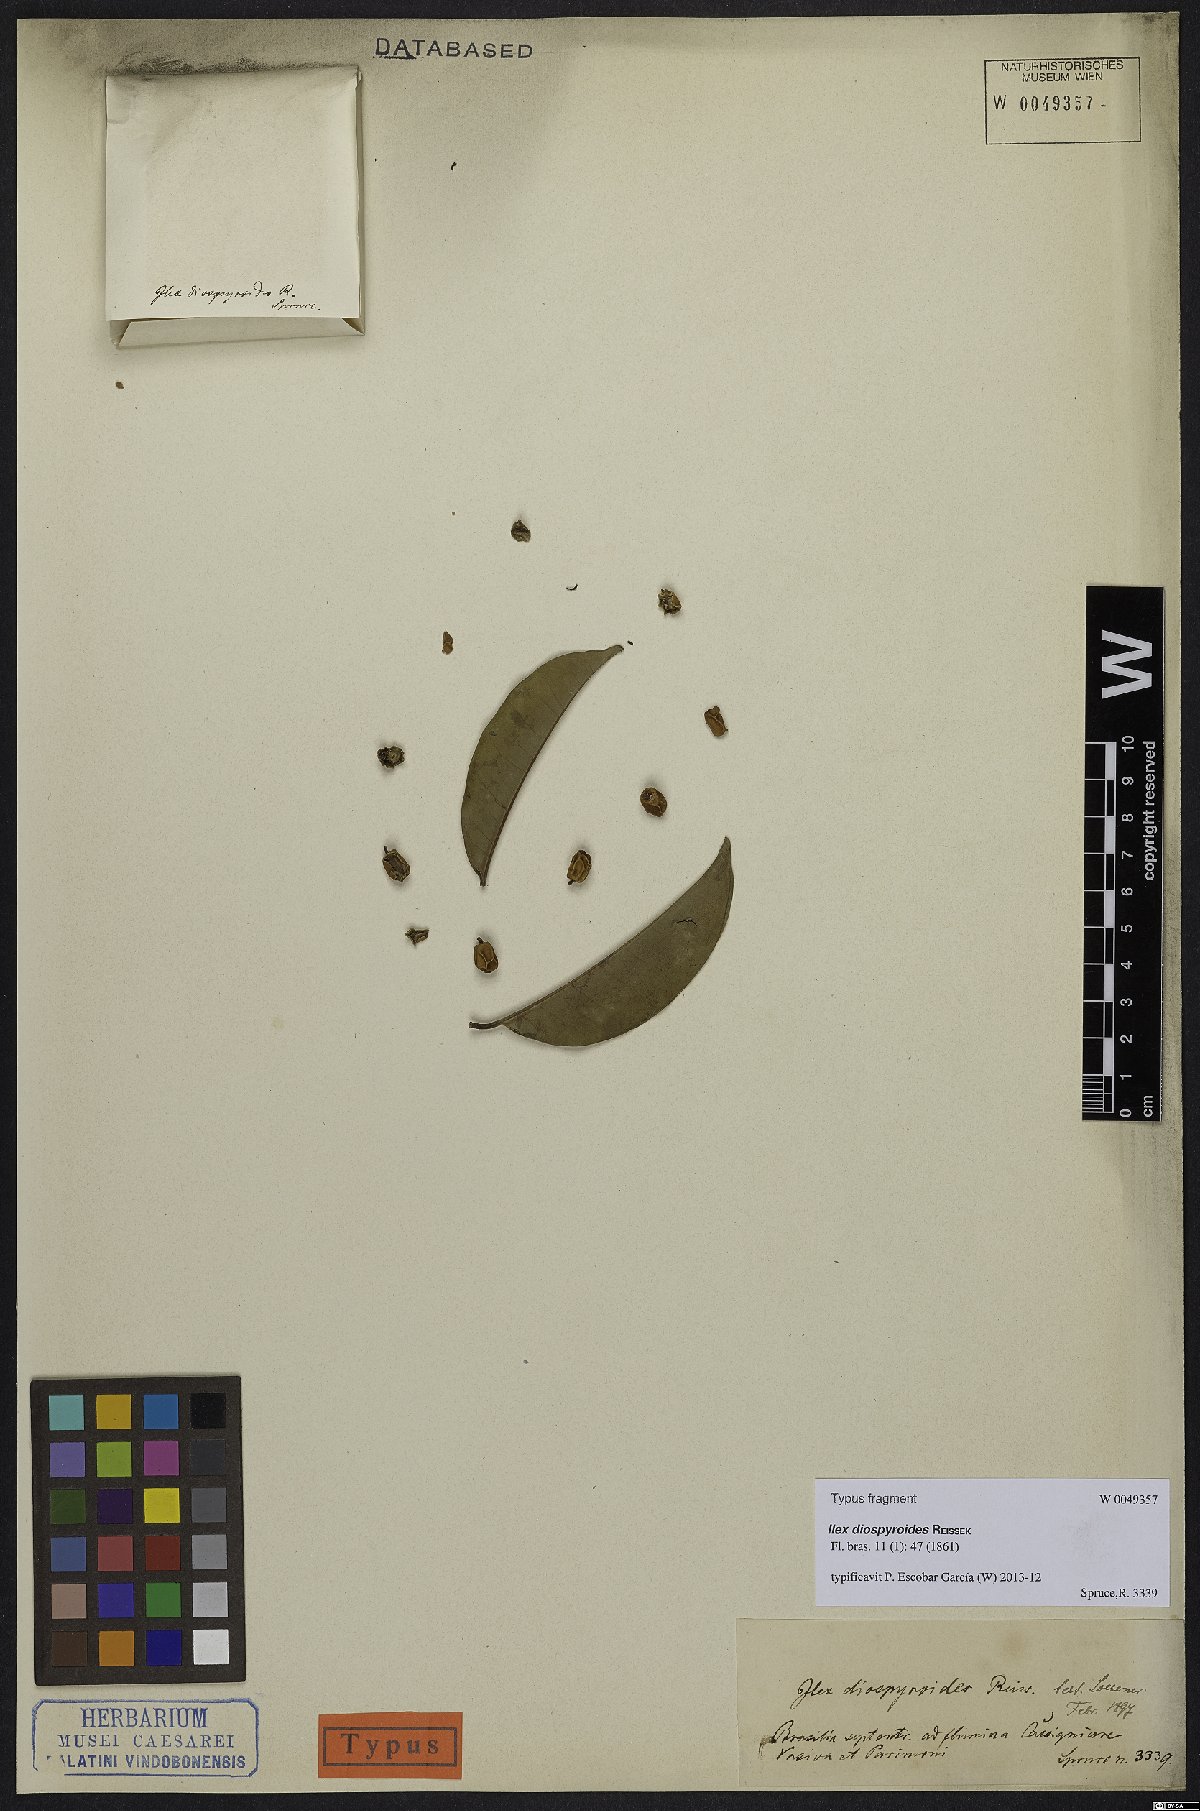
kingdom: Plantae
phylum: Tracheophyta
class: Magnoliopsida
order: Aquifoliales
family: Aquifoliaceae
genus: Ilex
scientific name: Ilex diospyroides
